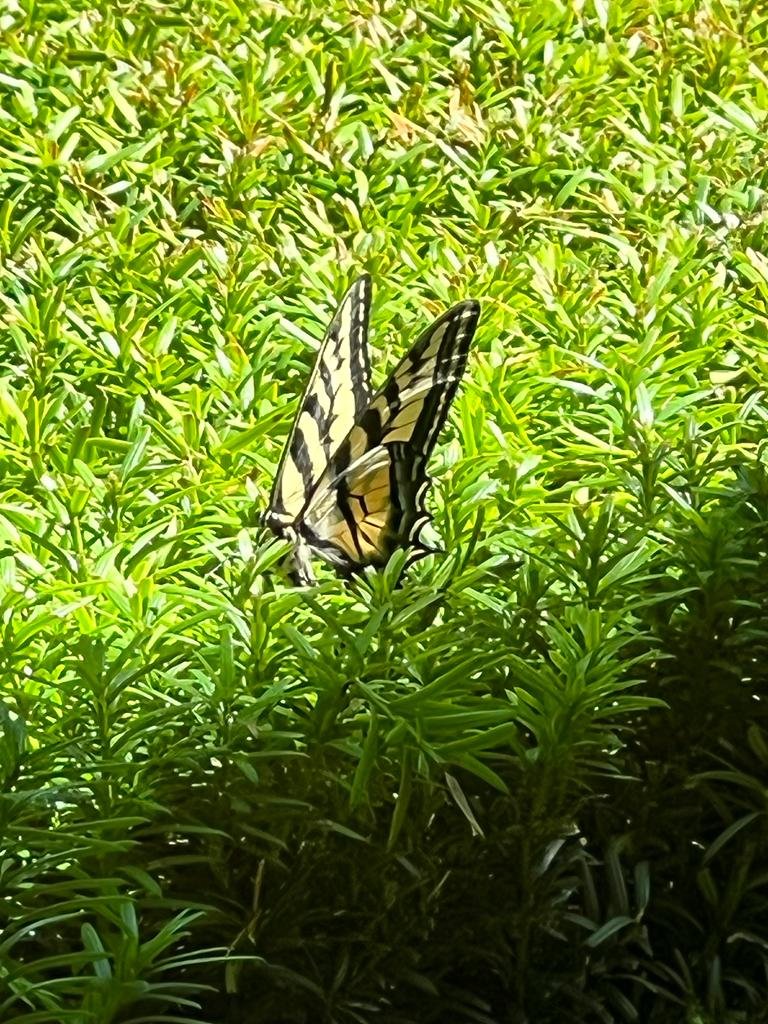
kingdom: Animalia
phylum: Arthropoda
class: Insecta
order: Lepidoptera
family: Papilionidae
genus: Pterourus
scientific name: Pterourus rutulus
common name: Western Tiger Swallowtail
